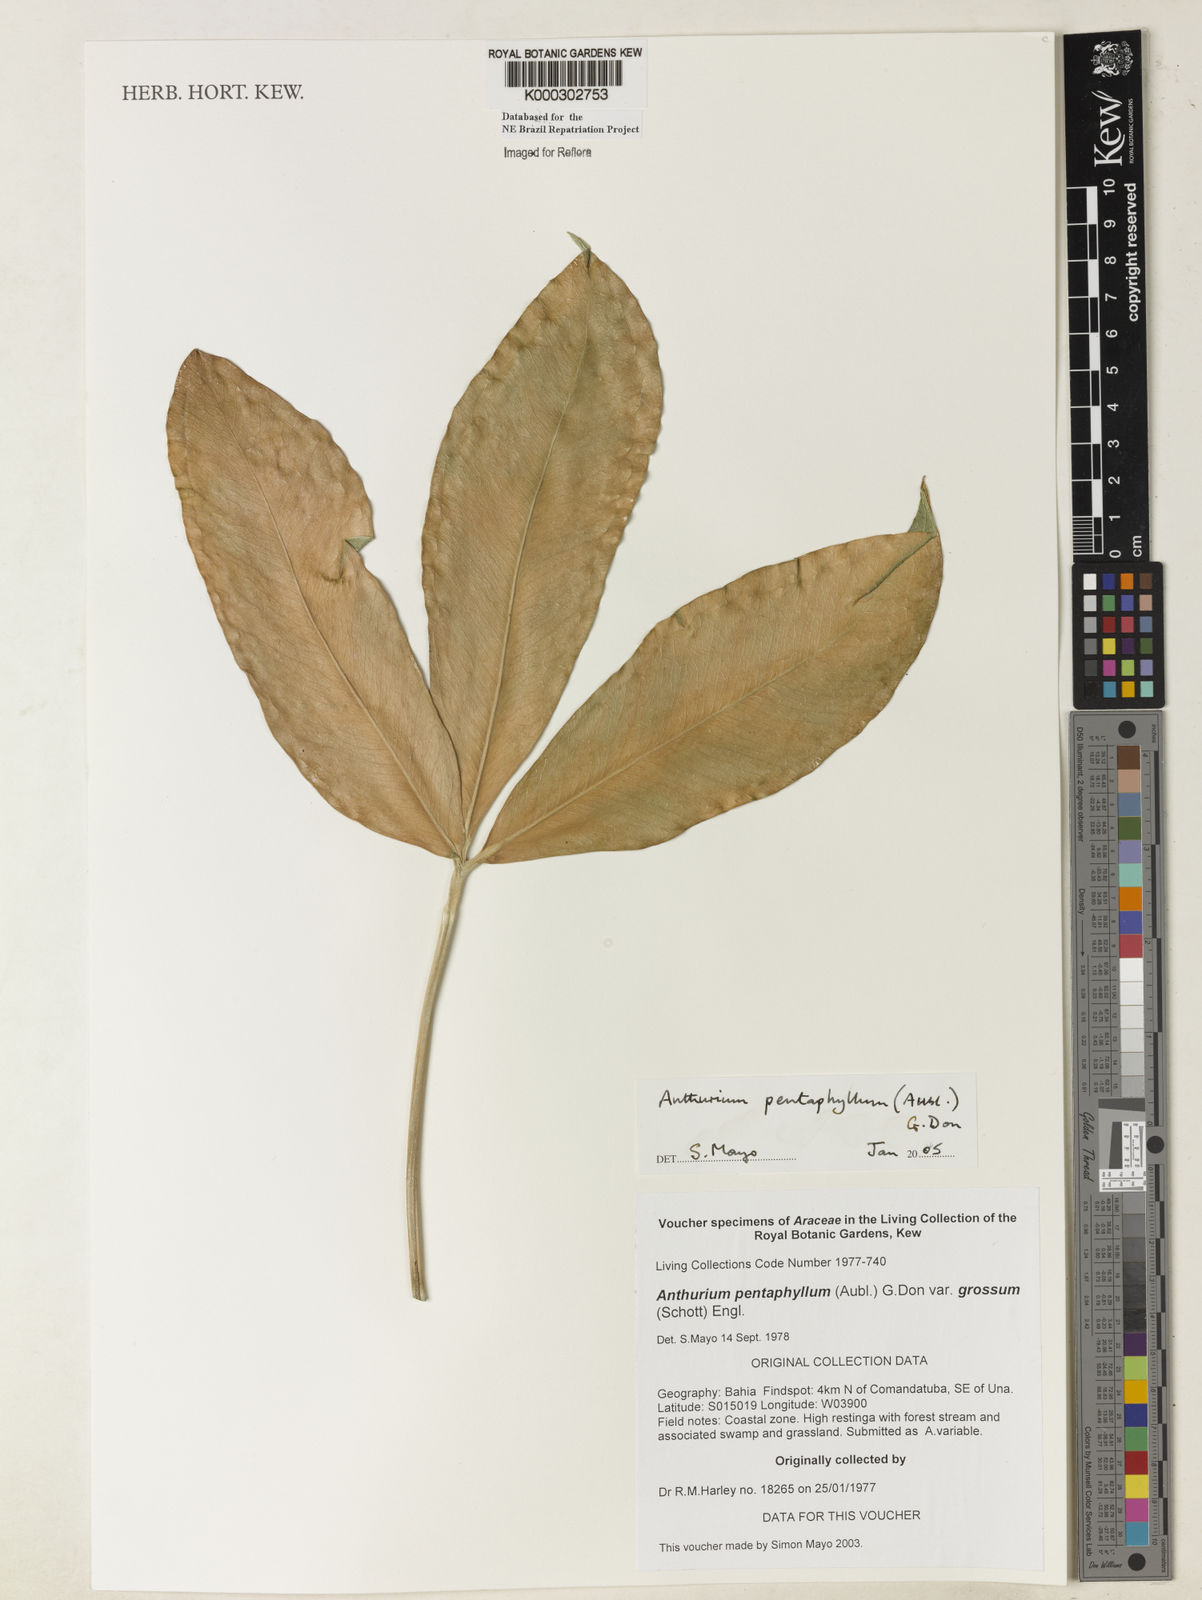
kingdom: Plantae
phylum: Tracheophyta
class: Liliopsida
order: Alismatales
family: Araceae
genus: Anthurium
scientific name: Anthurium pentaphyllum
